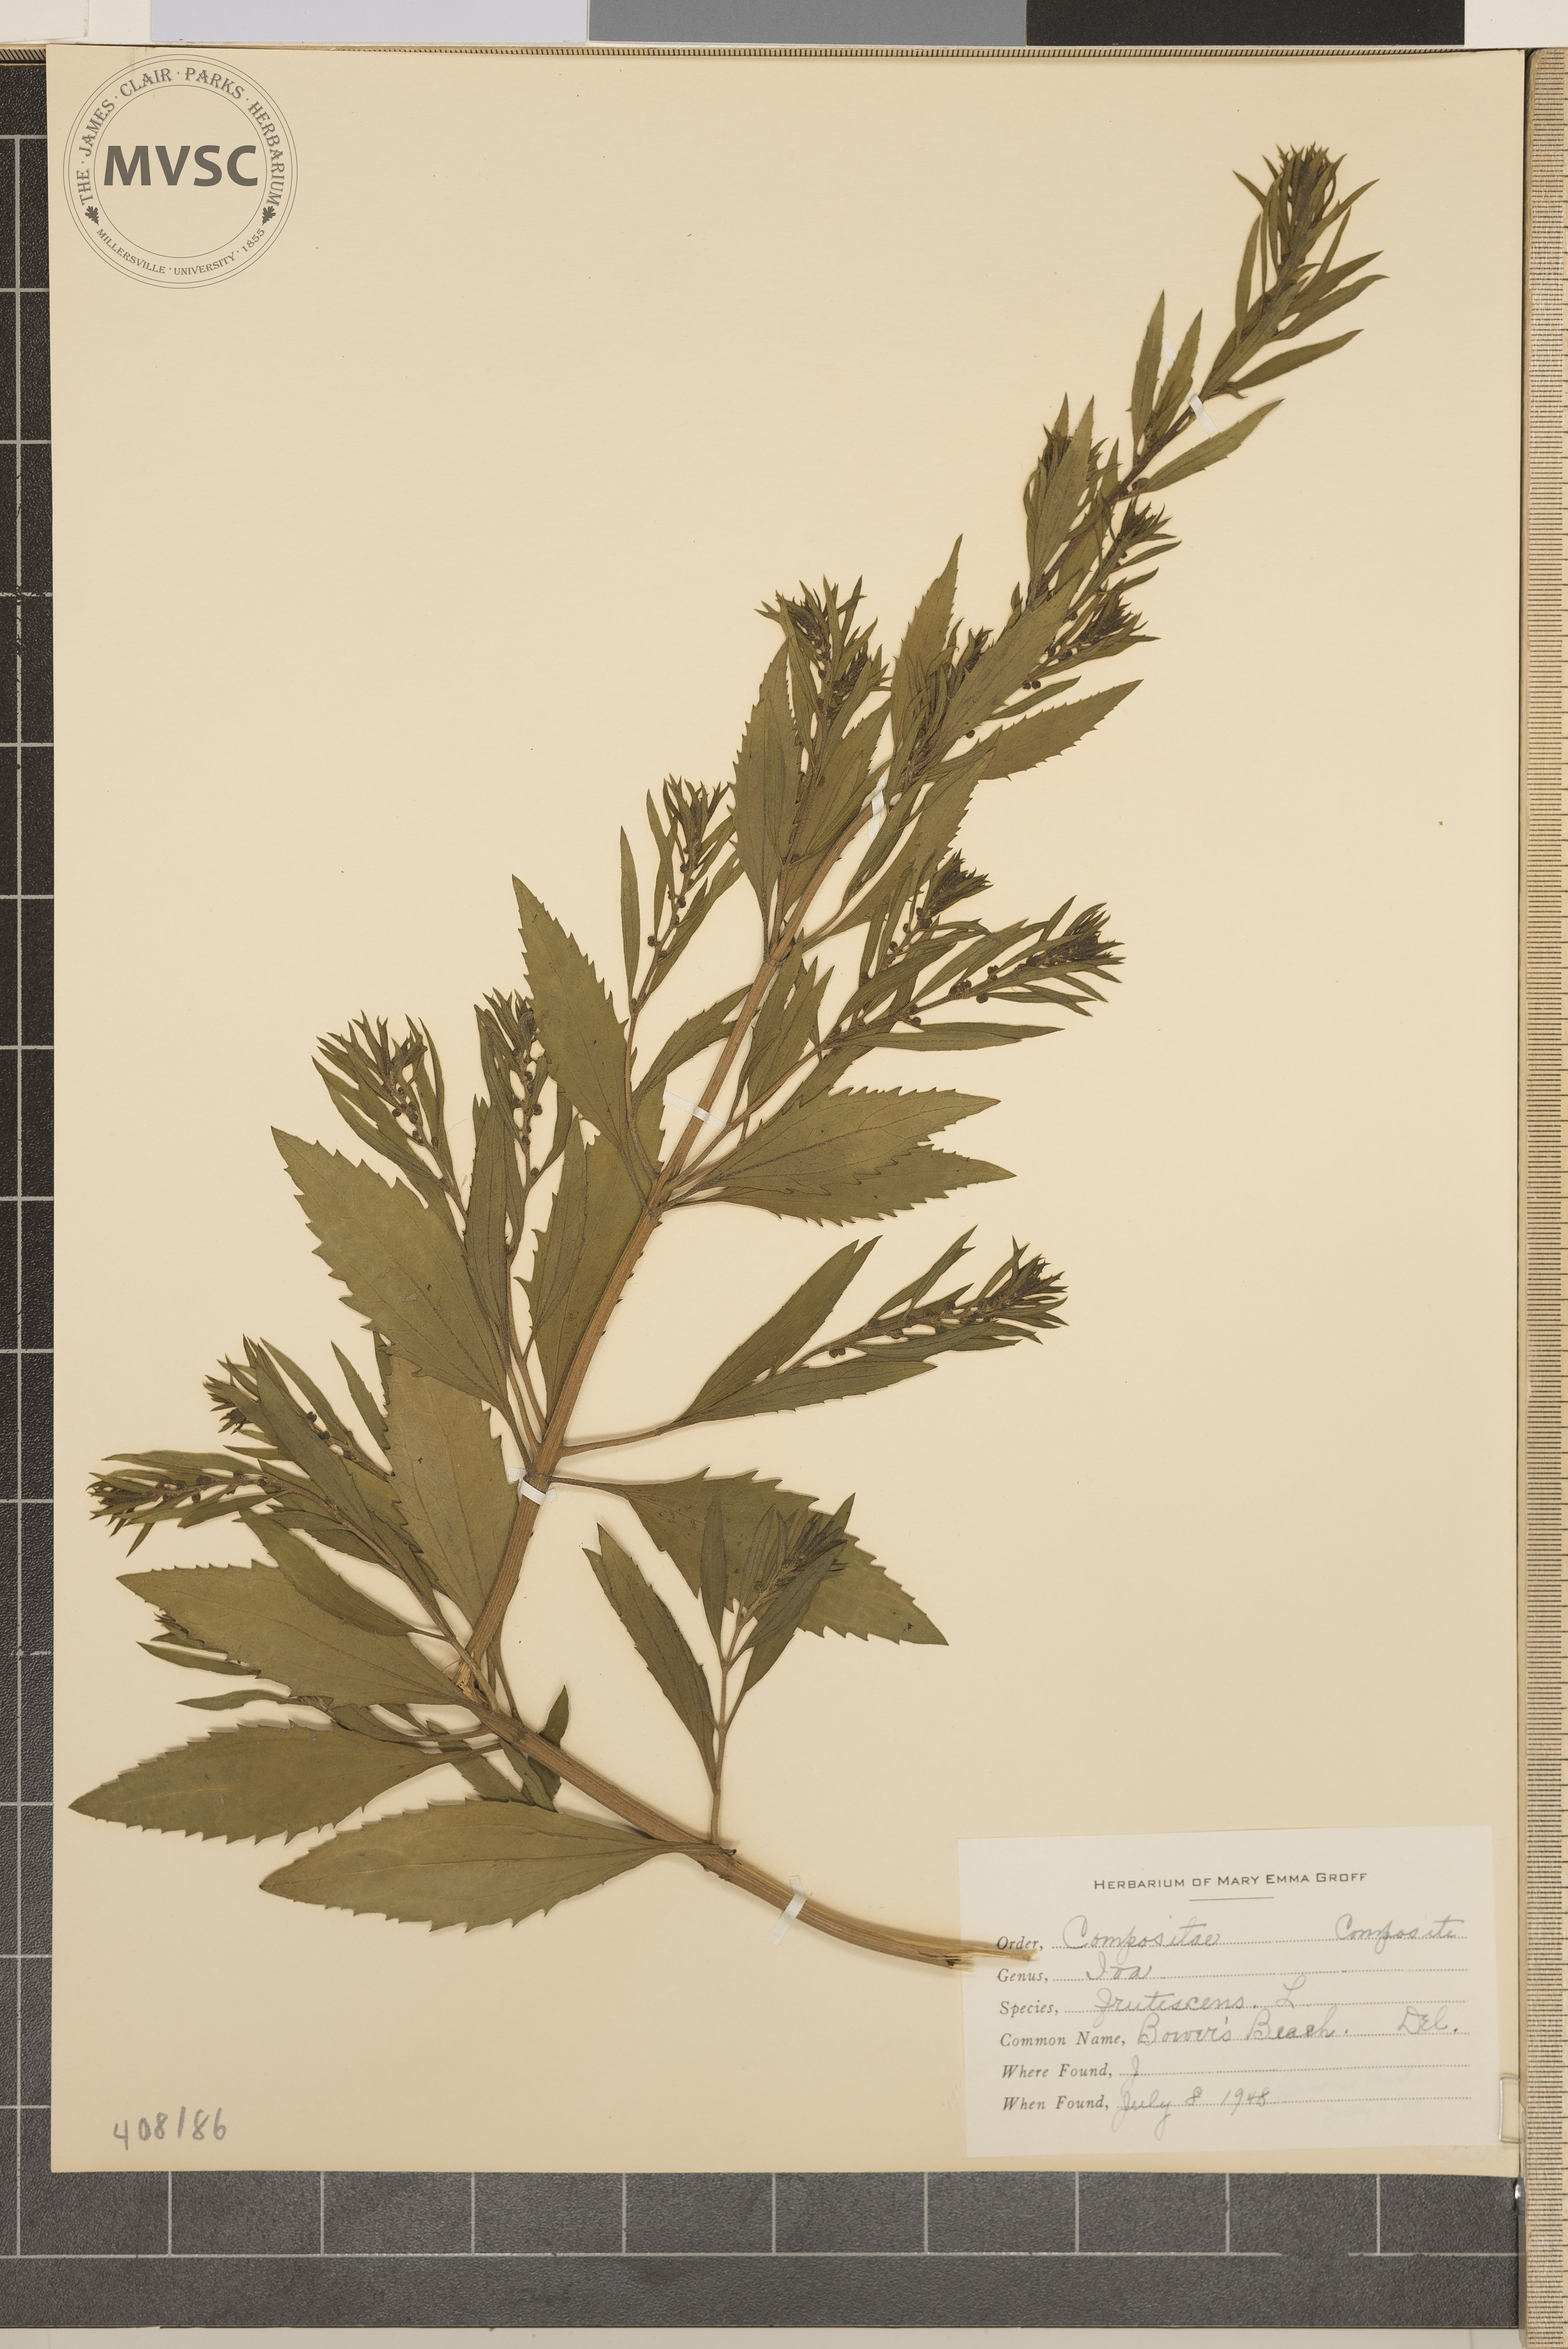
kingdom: Plantae
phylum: Tracheophyta
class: Magnoliopsida
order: Asterales
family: Asteraceae
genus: Iva
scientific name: Iva frutescens
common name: Big-leaved marsh-elder
